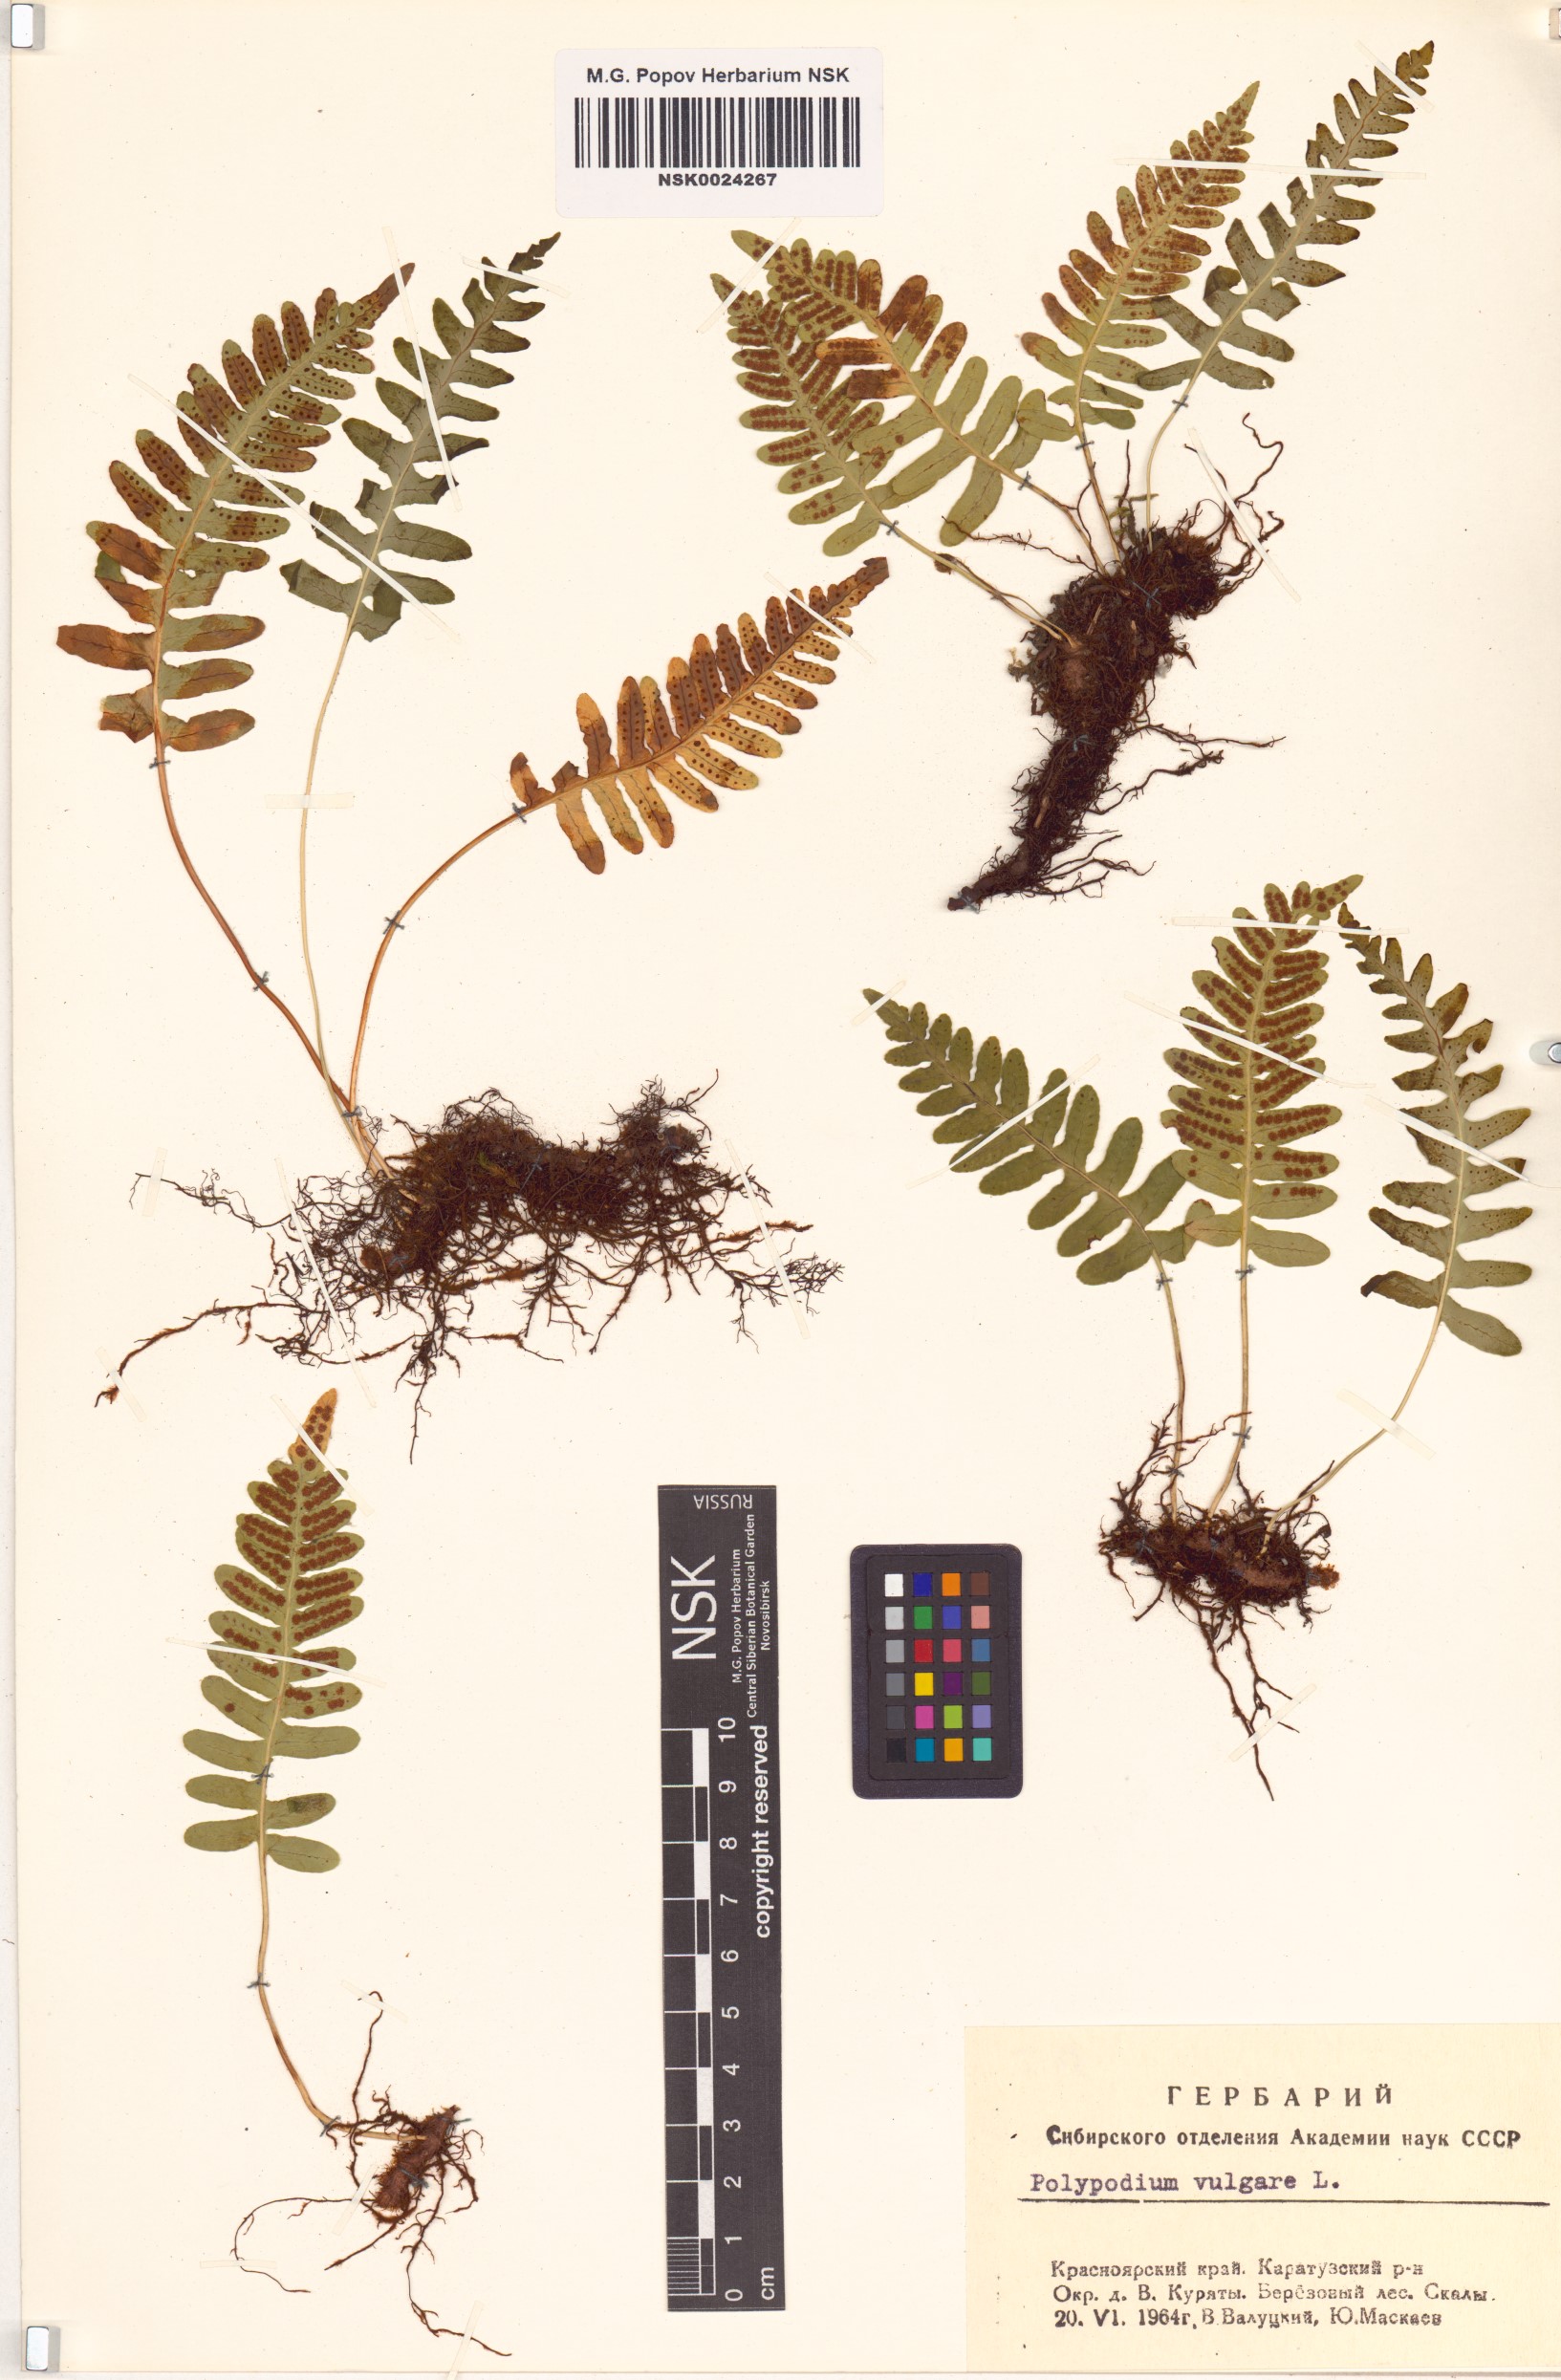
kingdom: Plantae
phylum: Tracheophyta
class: Polypodiopsida
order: Polypodiales
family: Polypodiaceae
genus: Polypodium
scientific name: Polypodium vulgare
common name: Common polypody
